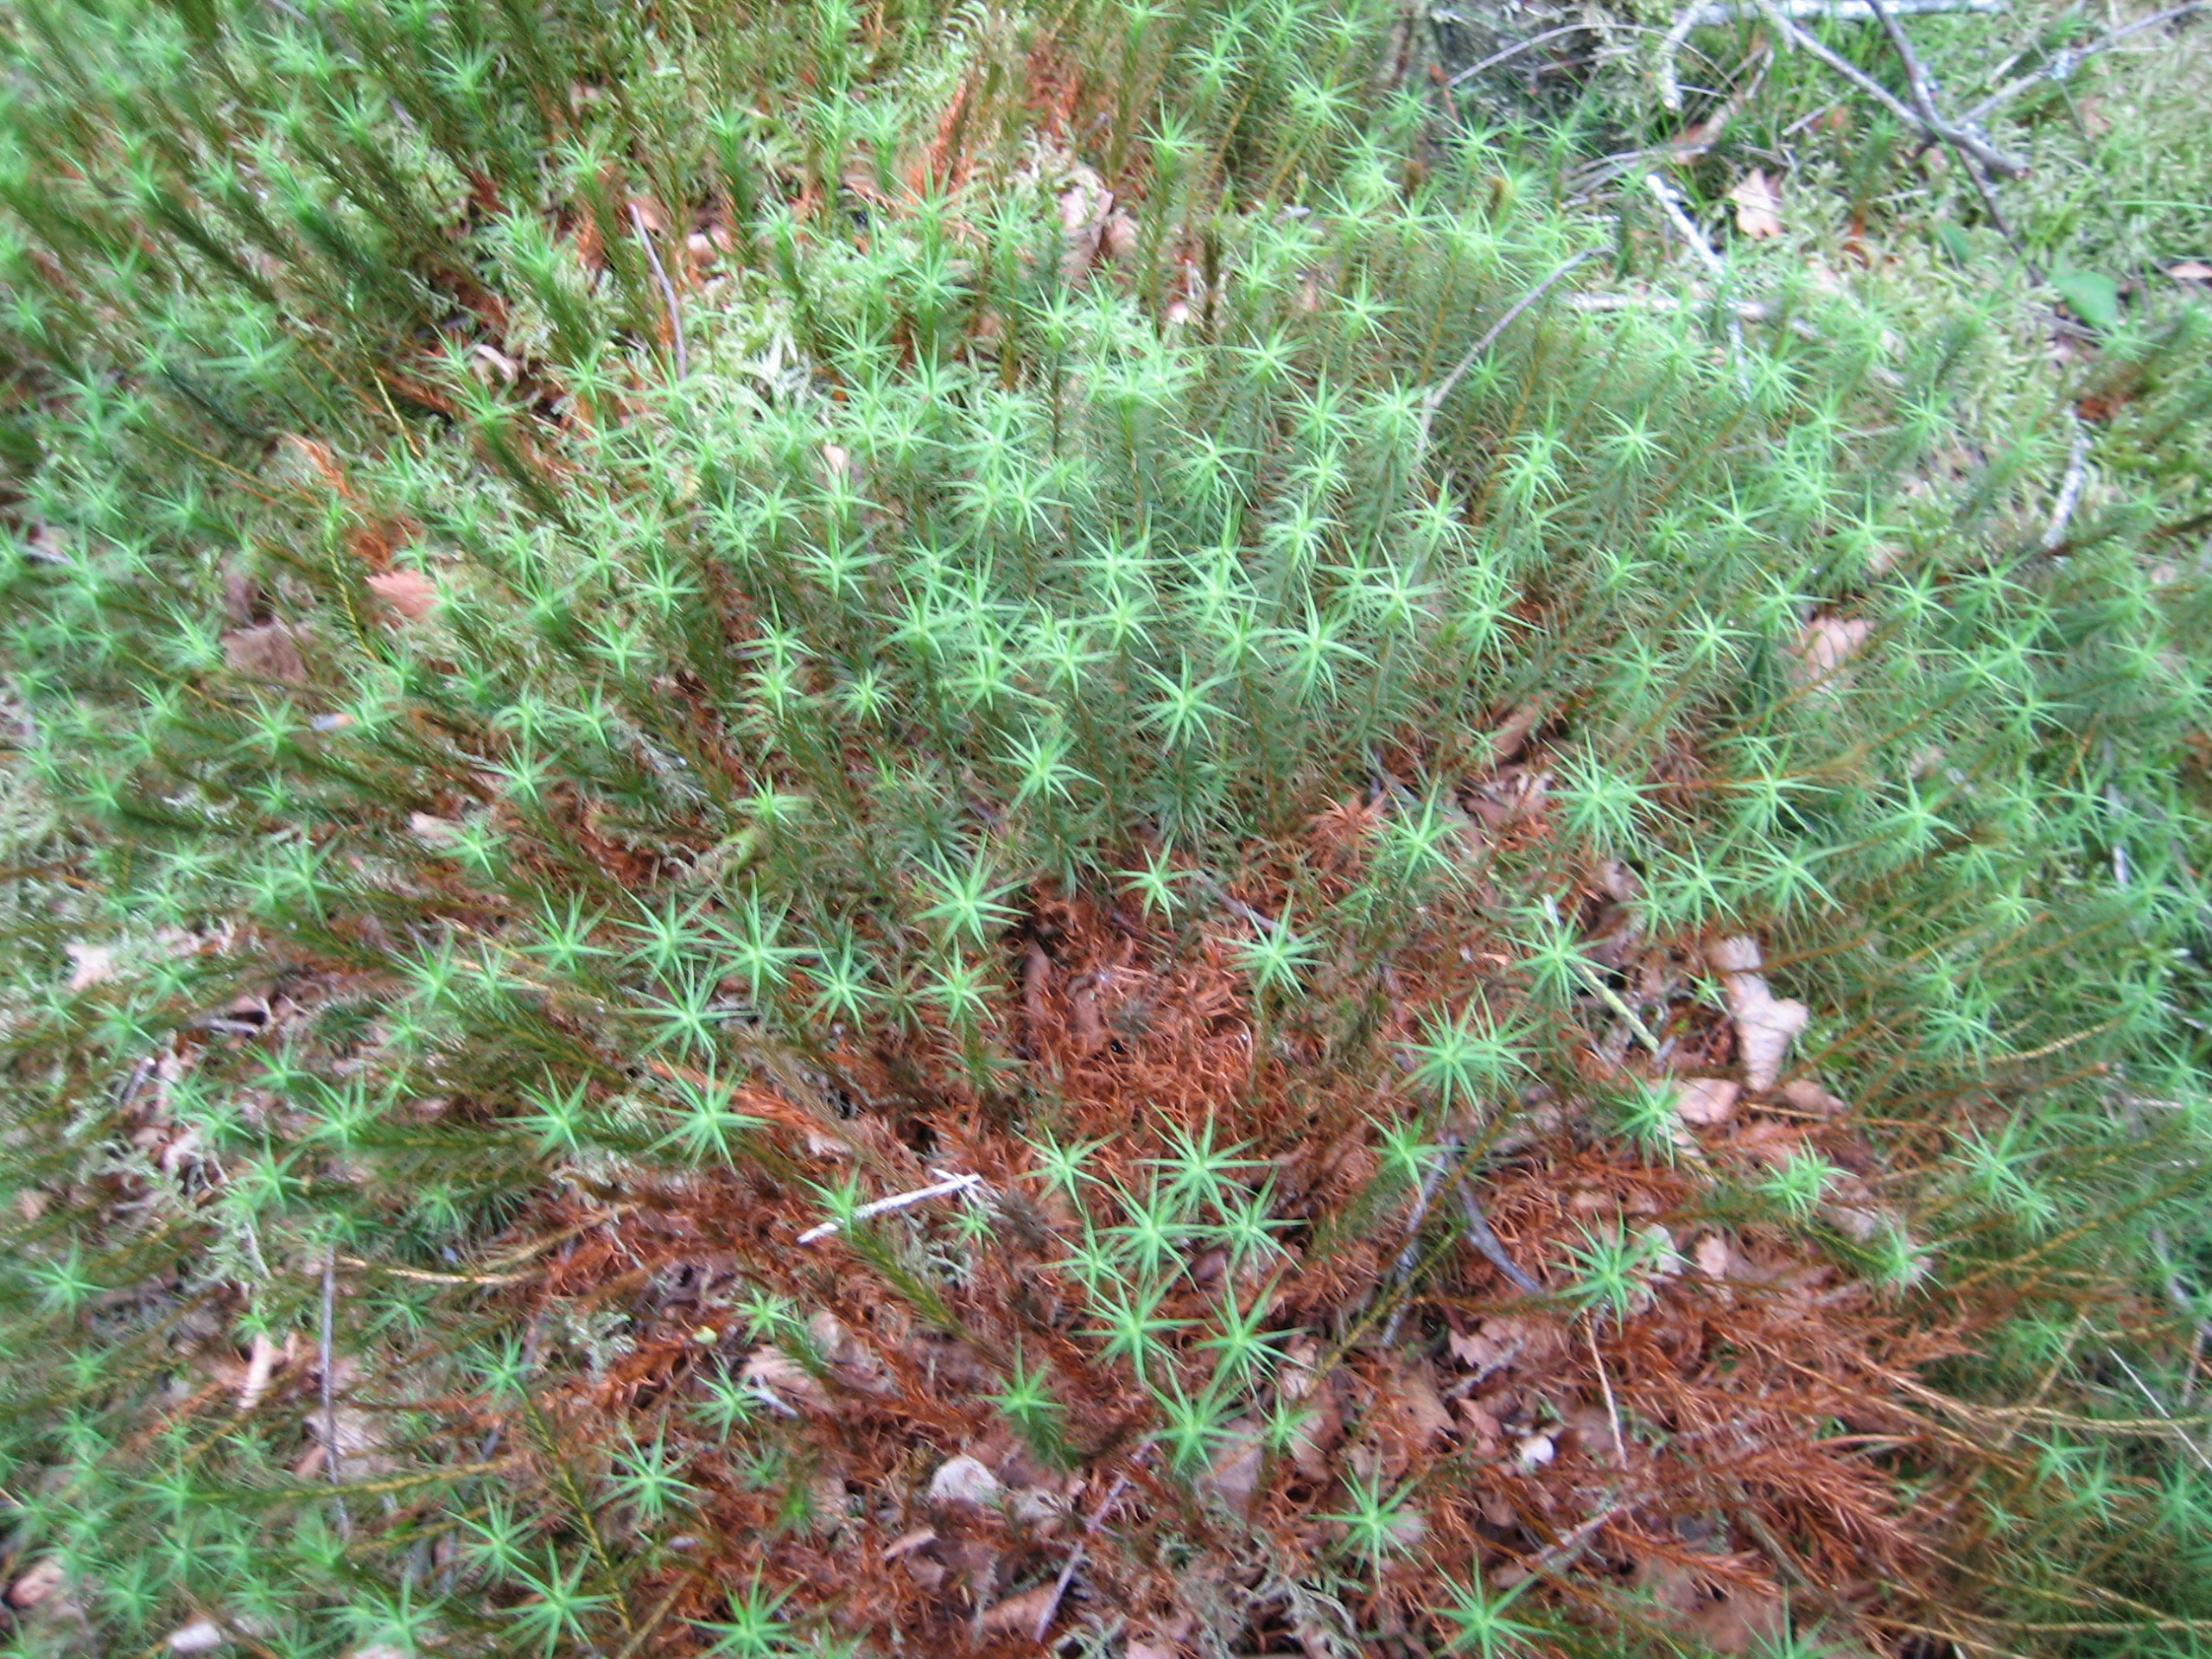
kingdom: Plantae
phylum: Bryophyta
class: Polytrichopsida
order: Polytrichales
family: Polytrichaceae
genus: Polytrichum
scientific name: Polytrichum commune
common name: Almindelig jomfruhår
